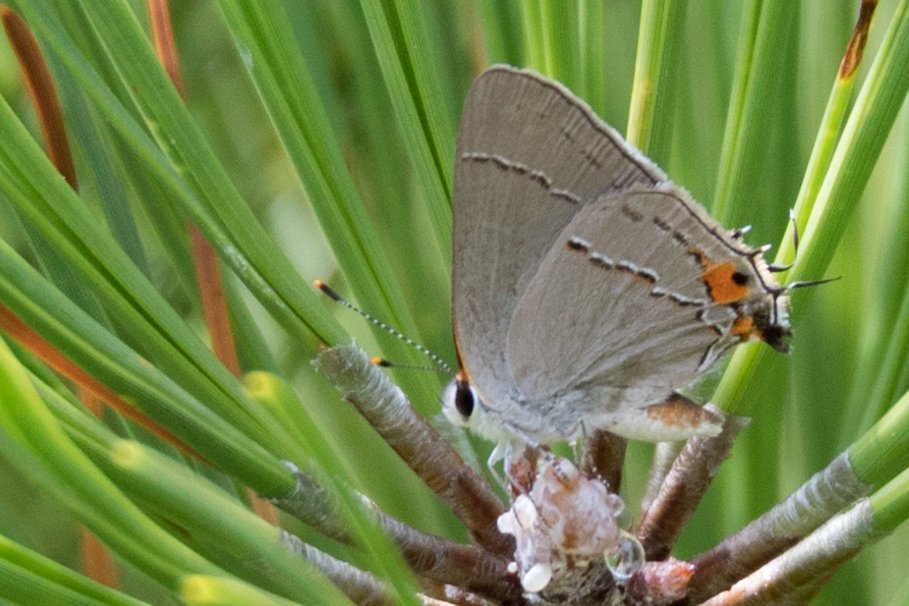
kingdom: Animalia
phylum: Arthropoda
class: Insecta
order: Lepidoptera
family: Lycaenidae
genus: Strymon
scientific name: Strymon melinus
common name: Gray Hairstreak
